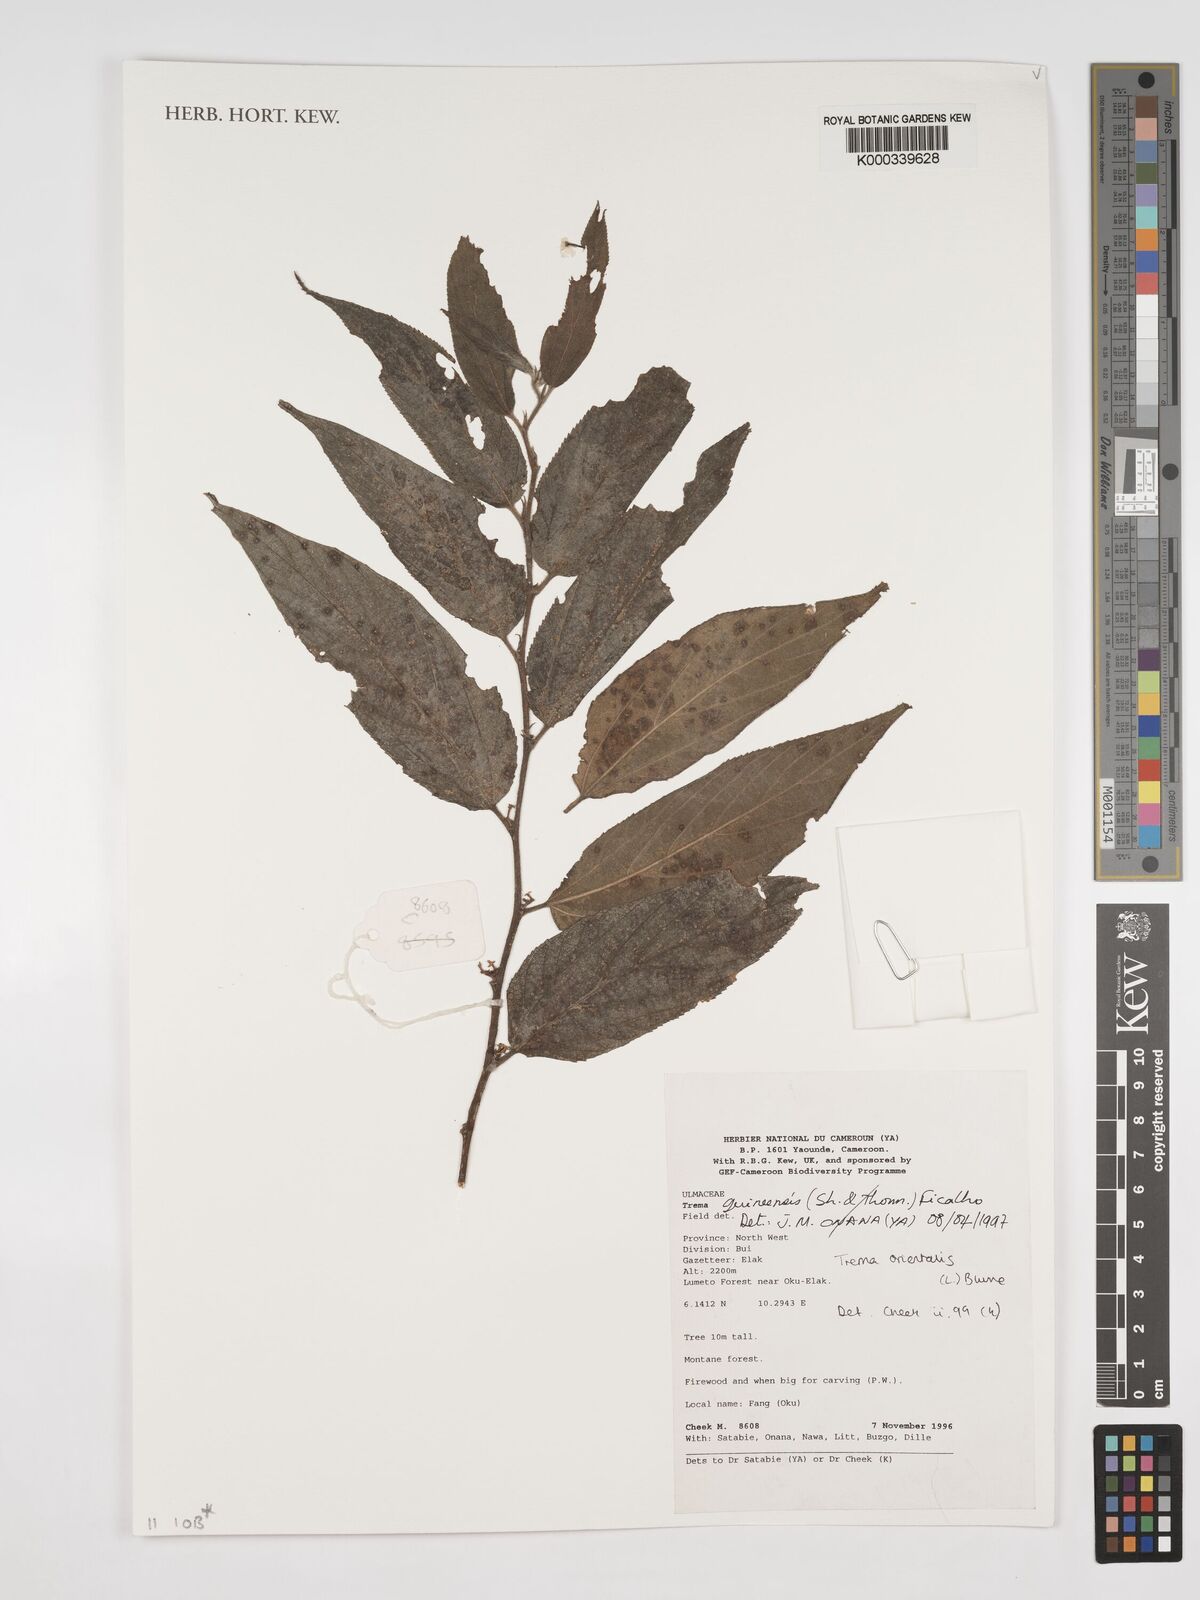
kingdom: Plantae
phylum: Tracheophyta
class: Magnoliopsida
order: Rosales
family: Cannabaceae
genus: Trema
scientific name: Trema
